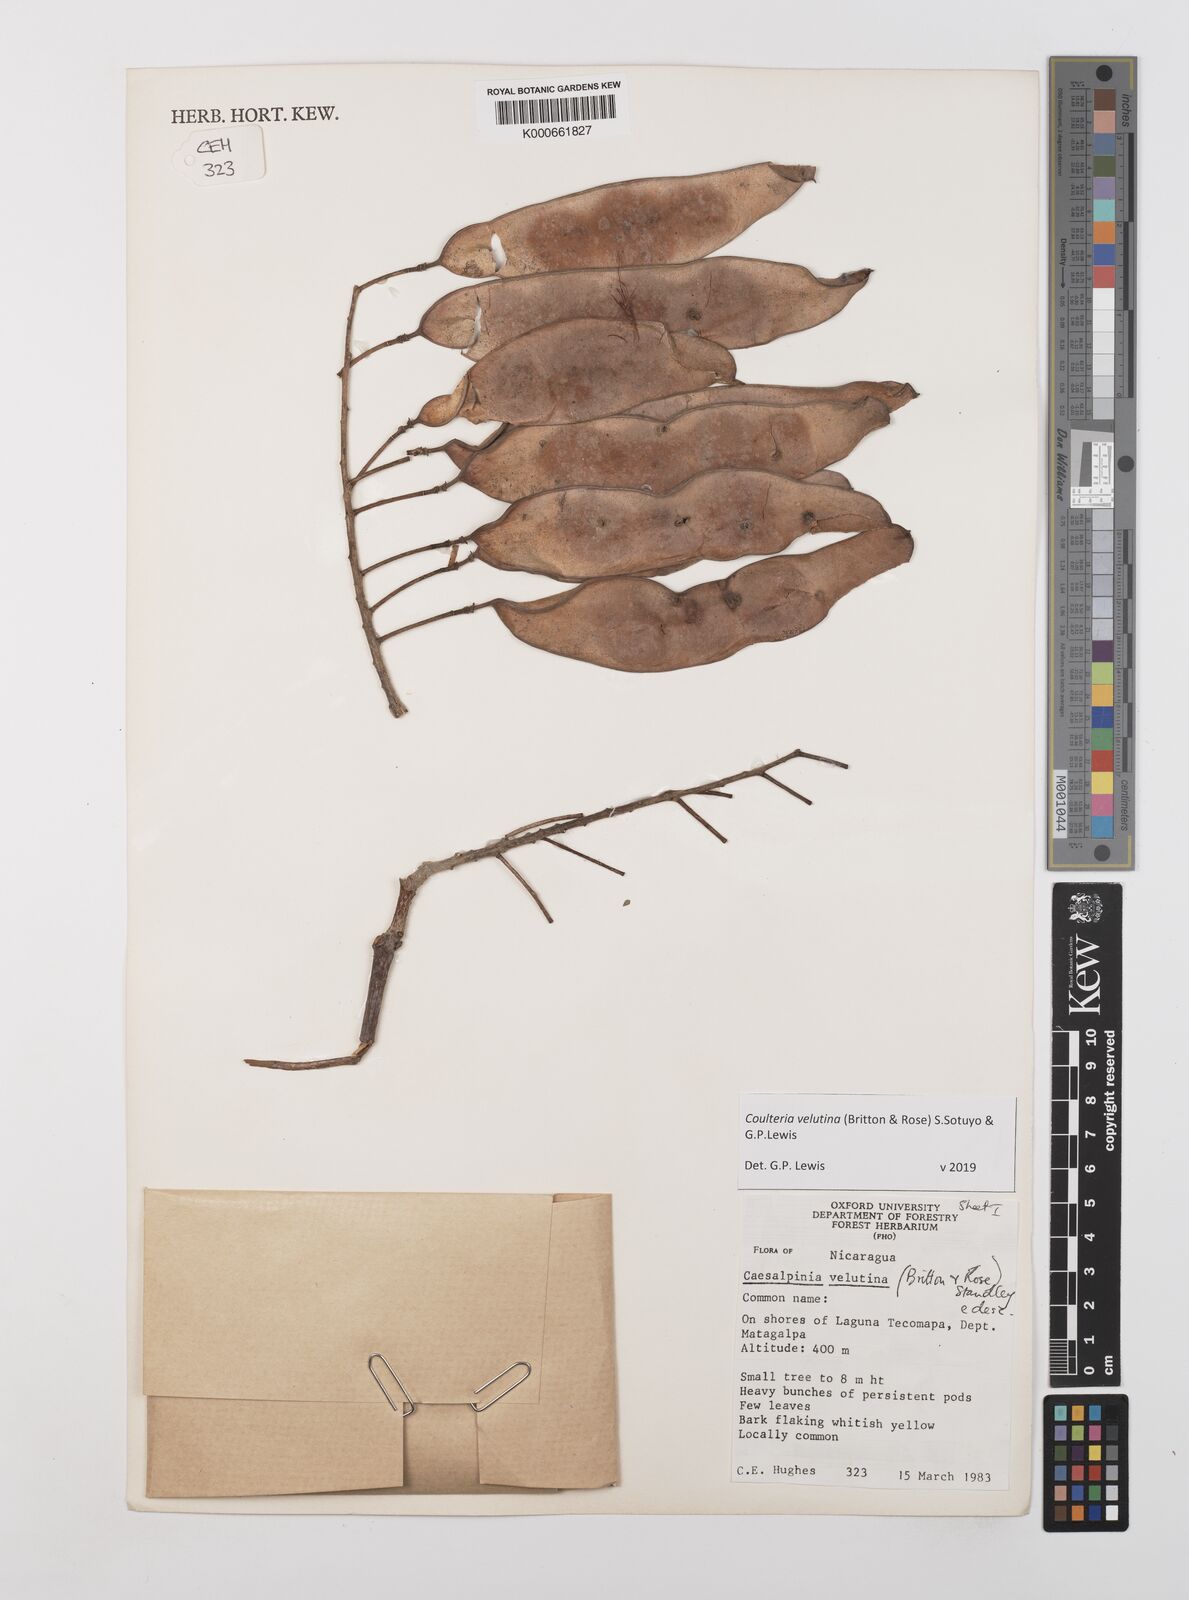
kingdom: Plantae
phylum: Tracheophyta
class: Magnoliopsida
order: Fabales
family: Fabaceae
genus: Coulteria
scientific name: Coulteria velutina
